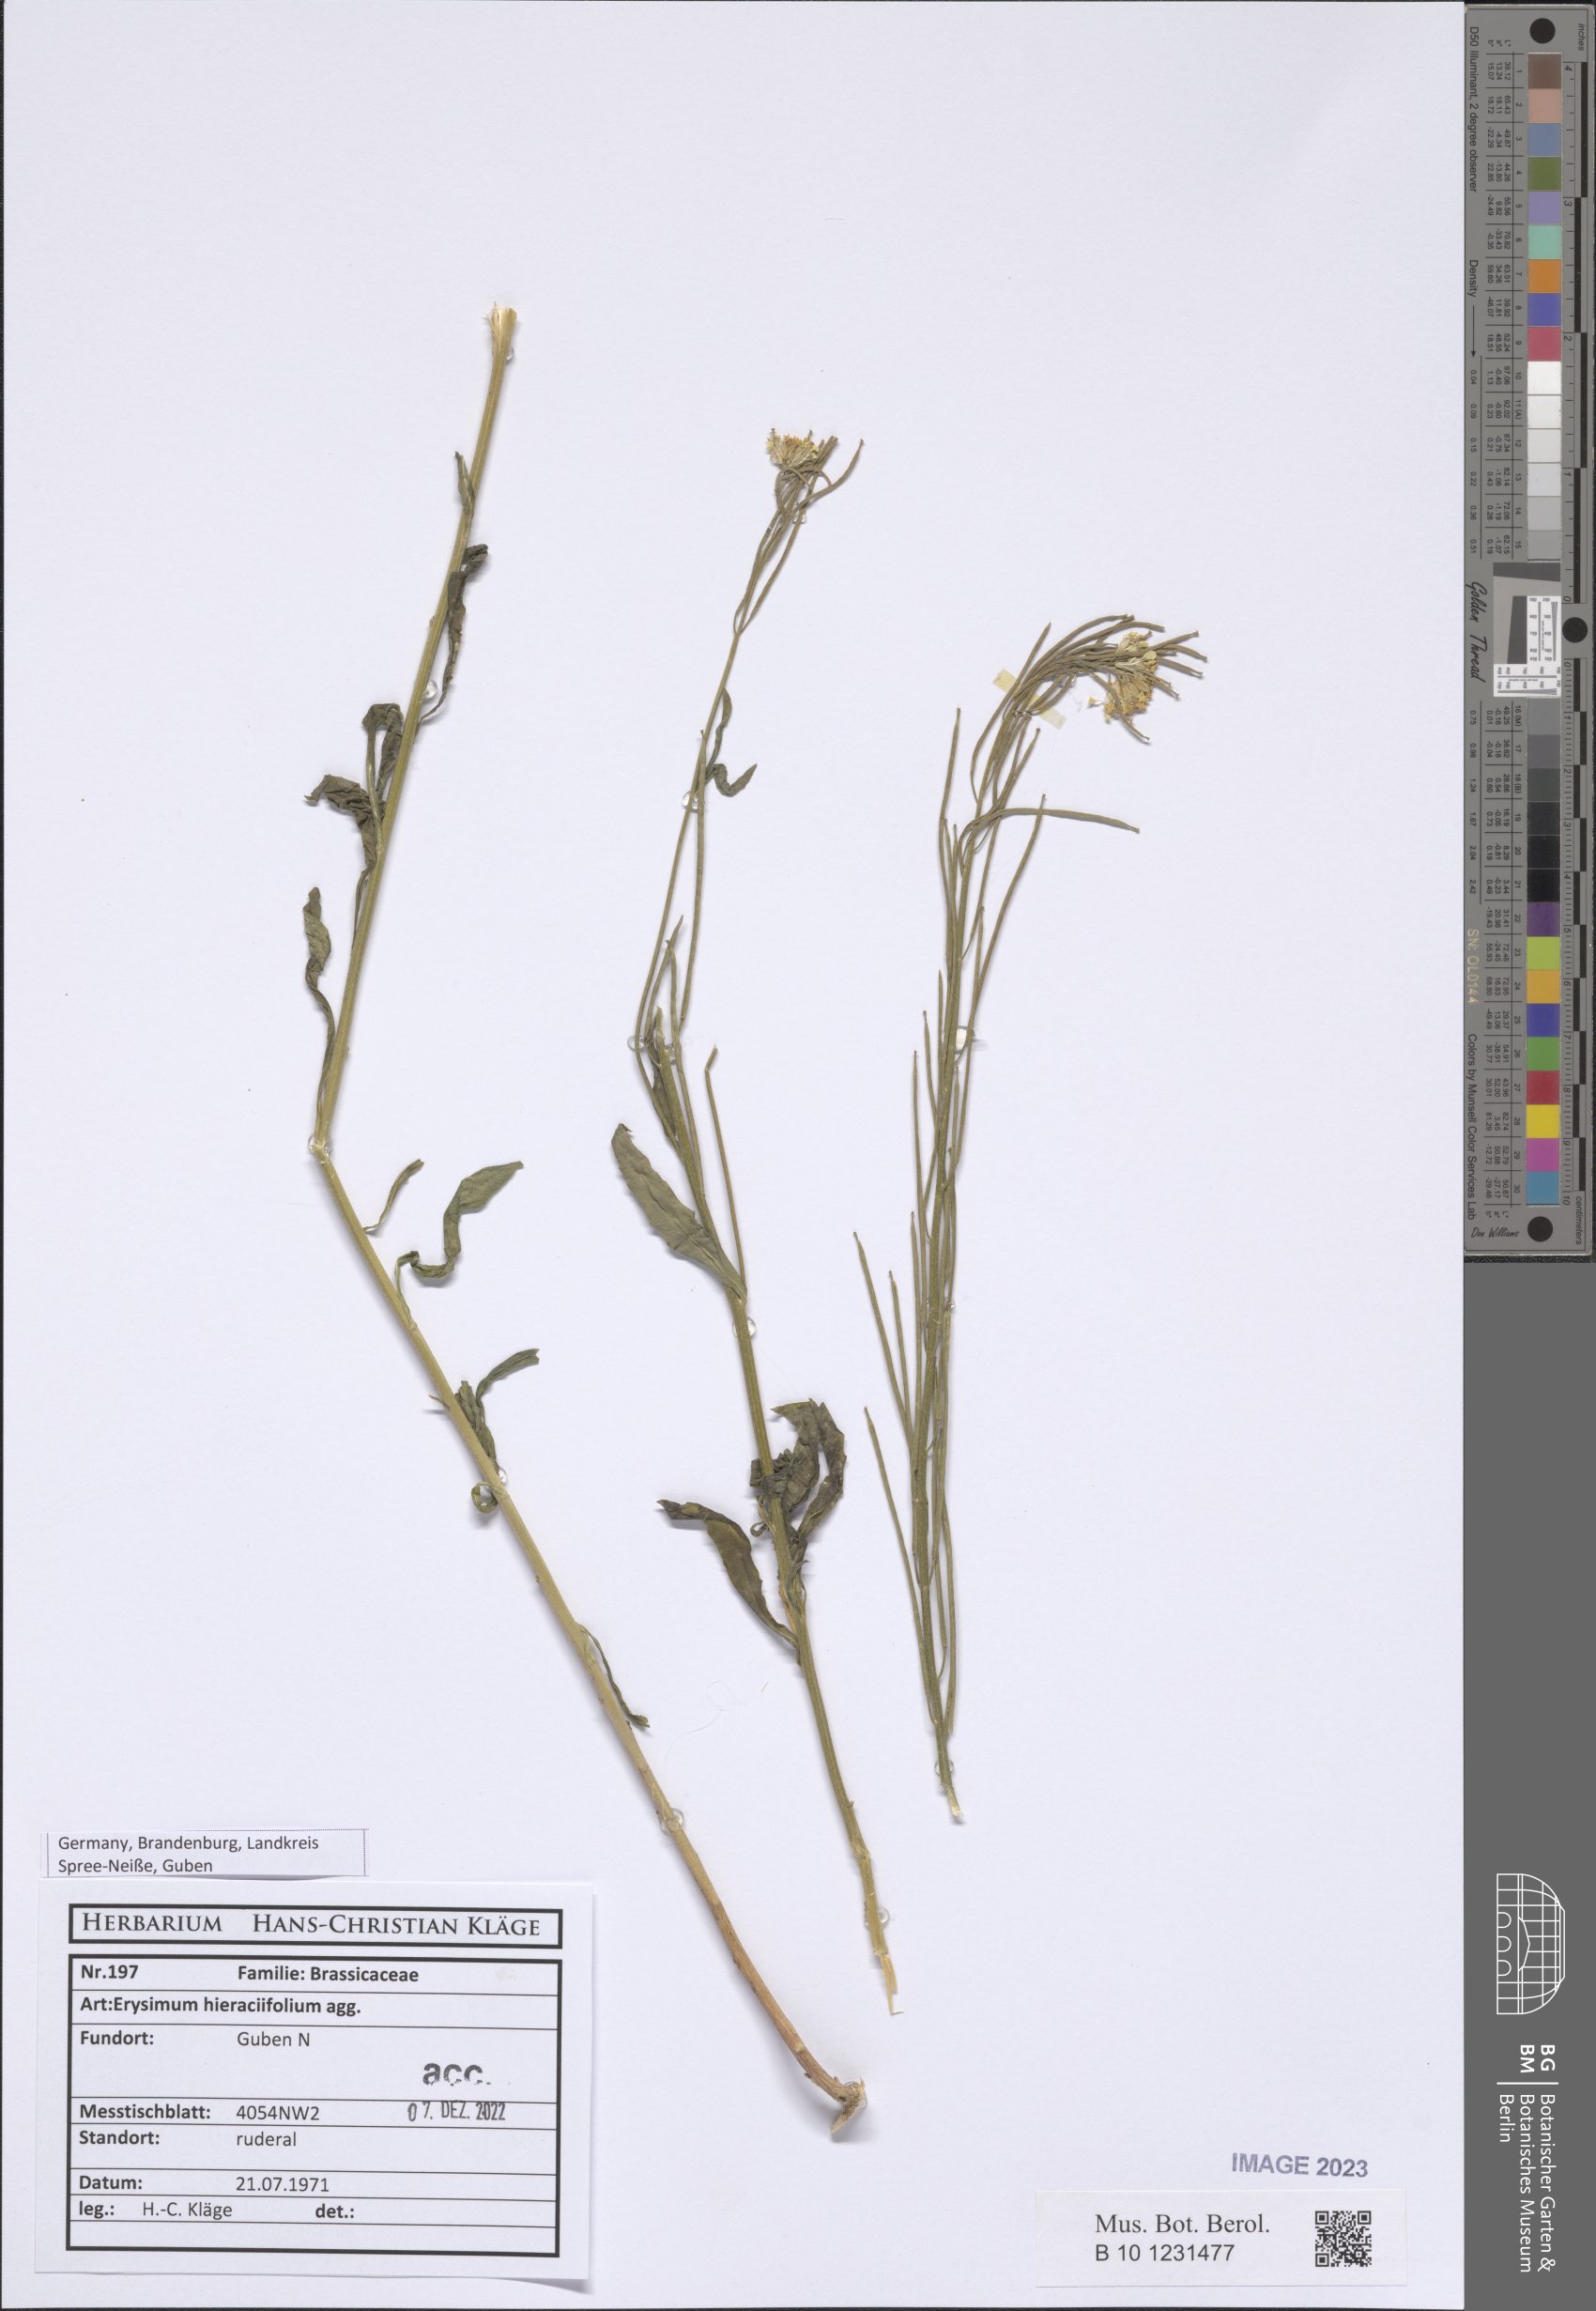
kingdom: Plantae
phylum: Tracheophyta
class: Magnoliopsida
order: Brassicales
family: Brassicaceae
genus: Erysimum
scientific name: Erysimum hieraciifolium
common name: European wallflower
